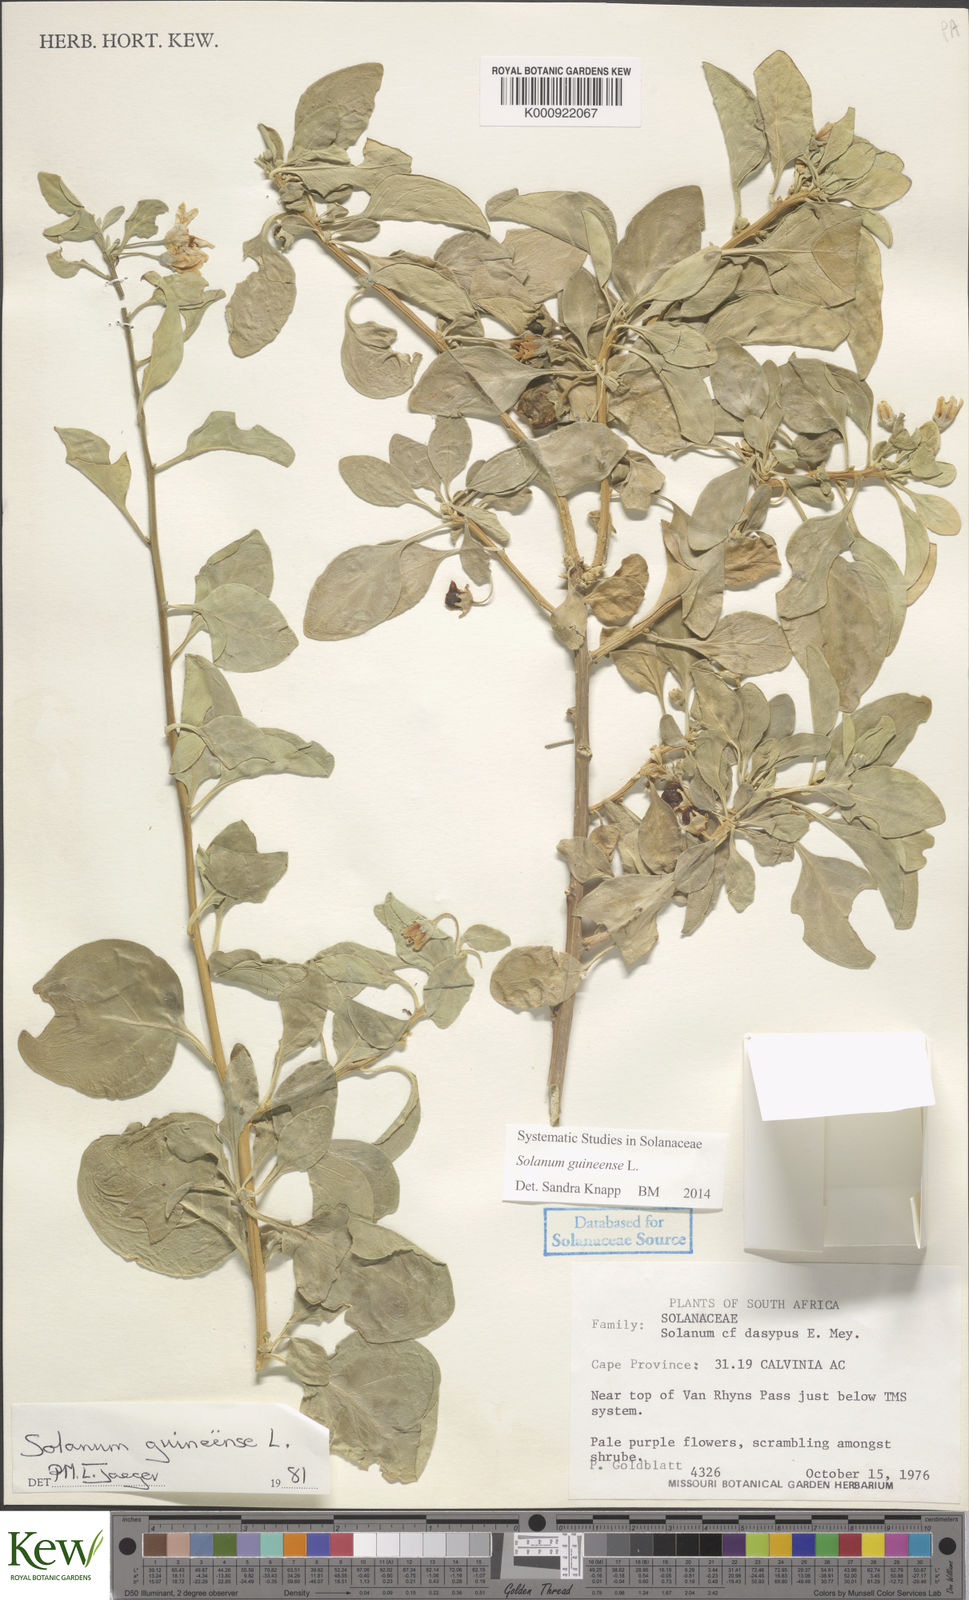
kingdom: Plantae
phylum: Tracheophyta
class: Magnoliopsida
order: Solanales
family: Solanaceae
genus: Solanum
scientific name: Solanum guineense
